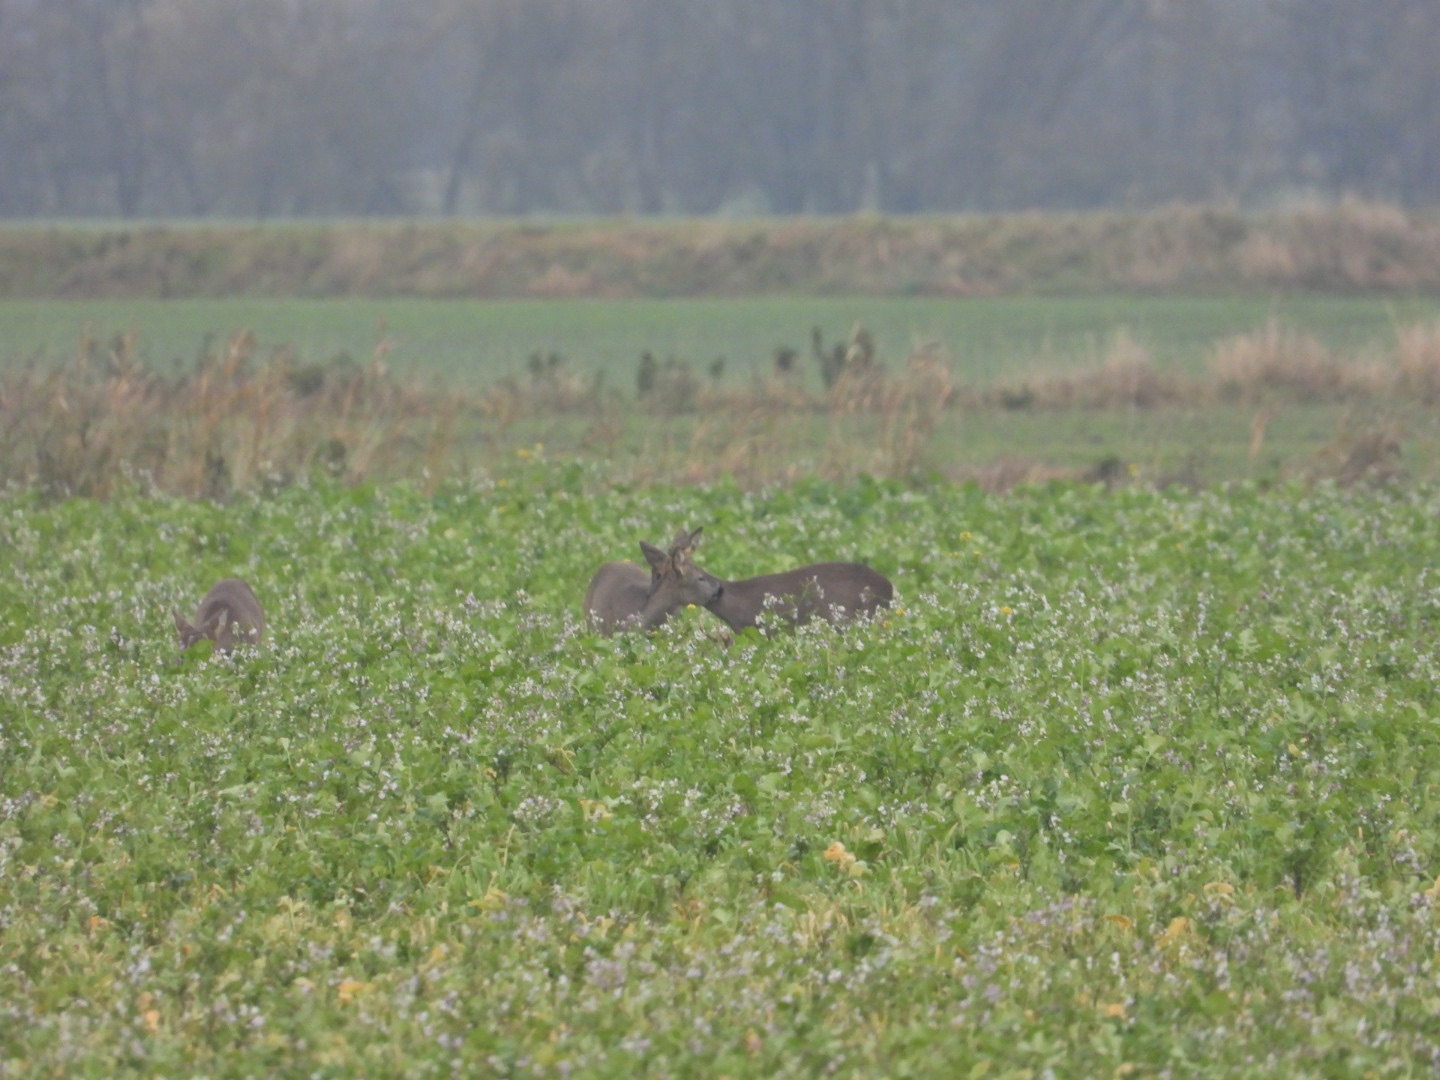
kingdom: Animalia
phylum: Chordata
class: Mammalia
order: Artiodactyla
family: Cervidae
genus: Capreolus
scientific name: Capreolus capreolus
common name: Rådyr
